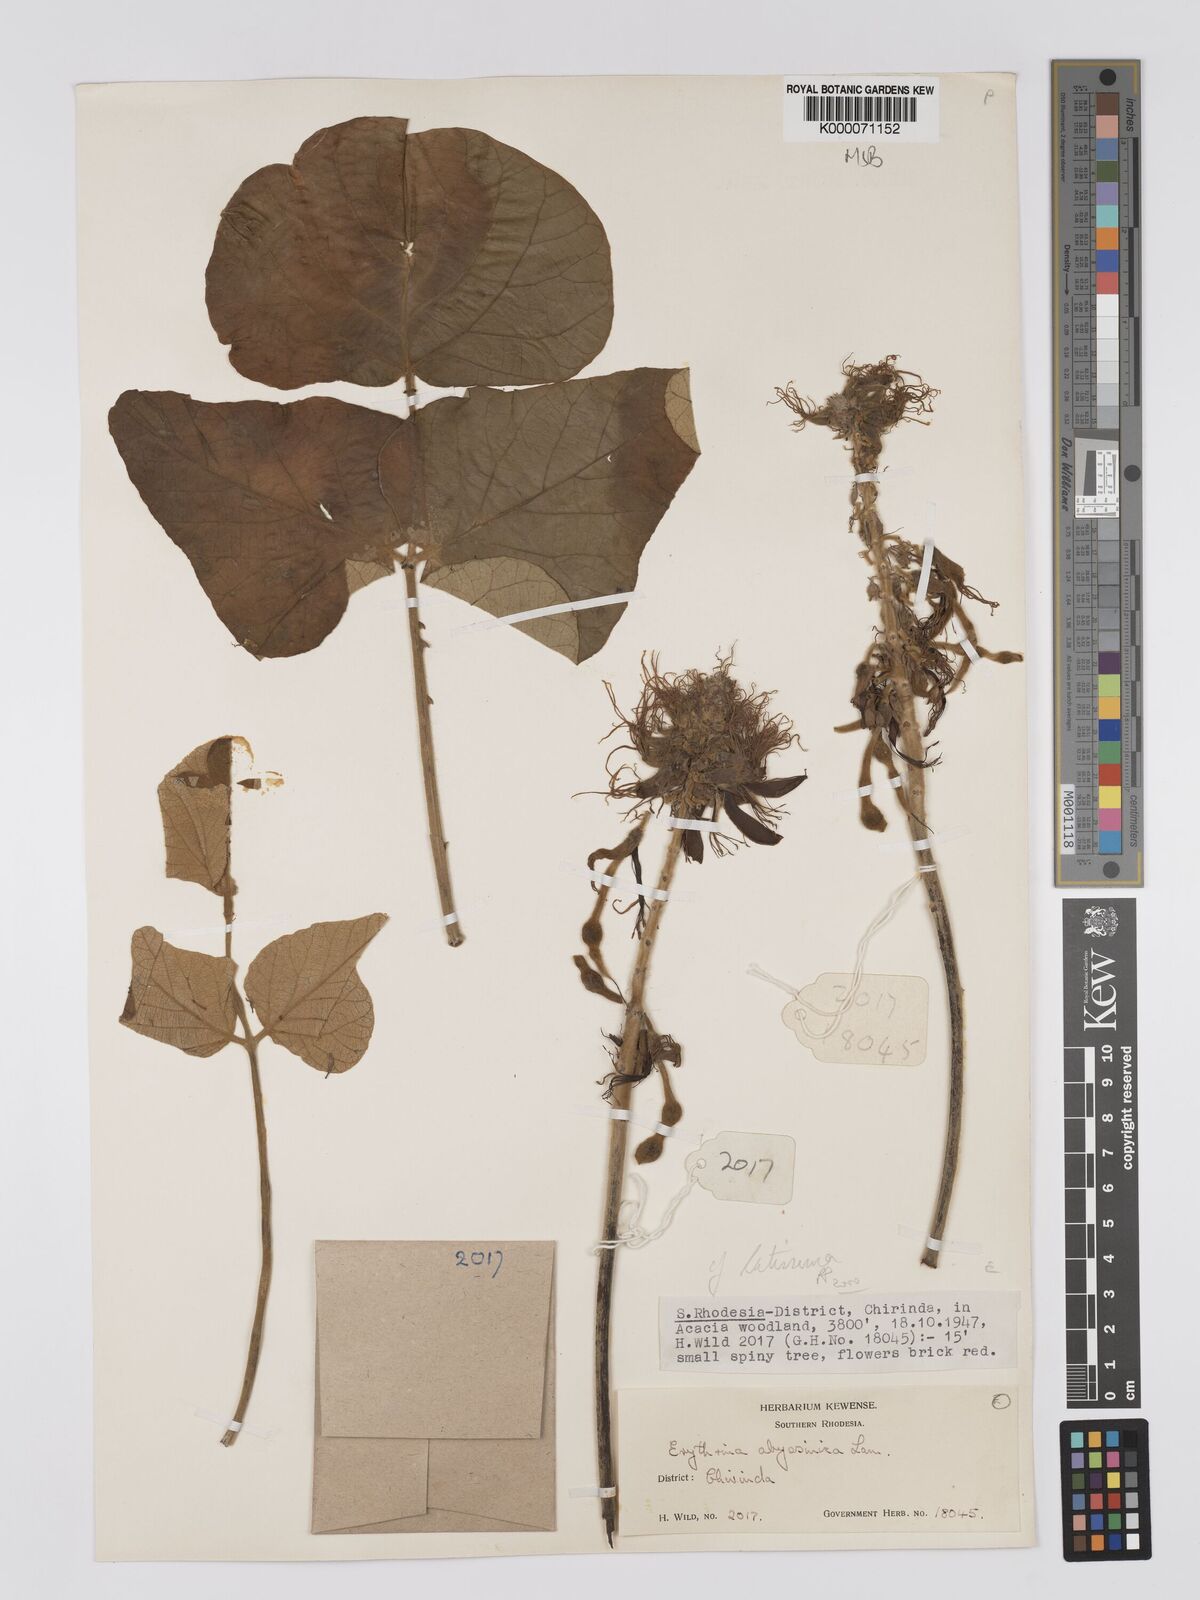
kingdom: Plantae
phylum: Tracheophyta
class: Magnoliopsida
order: Fabales
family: Fabaceae
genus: Erythrina
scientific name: Erythrina latissima
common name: Broad-leaved coral tree
